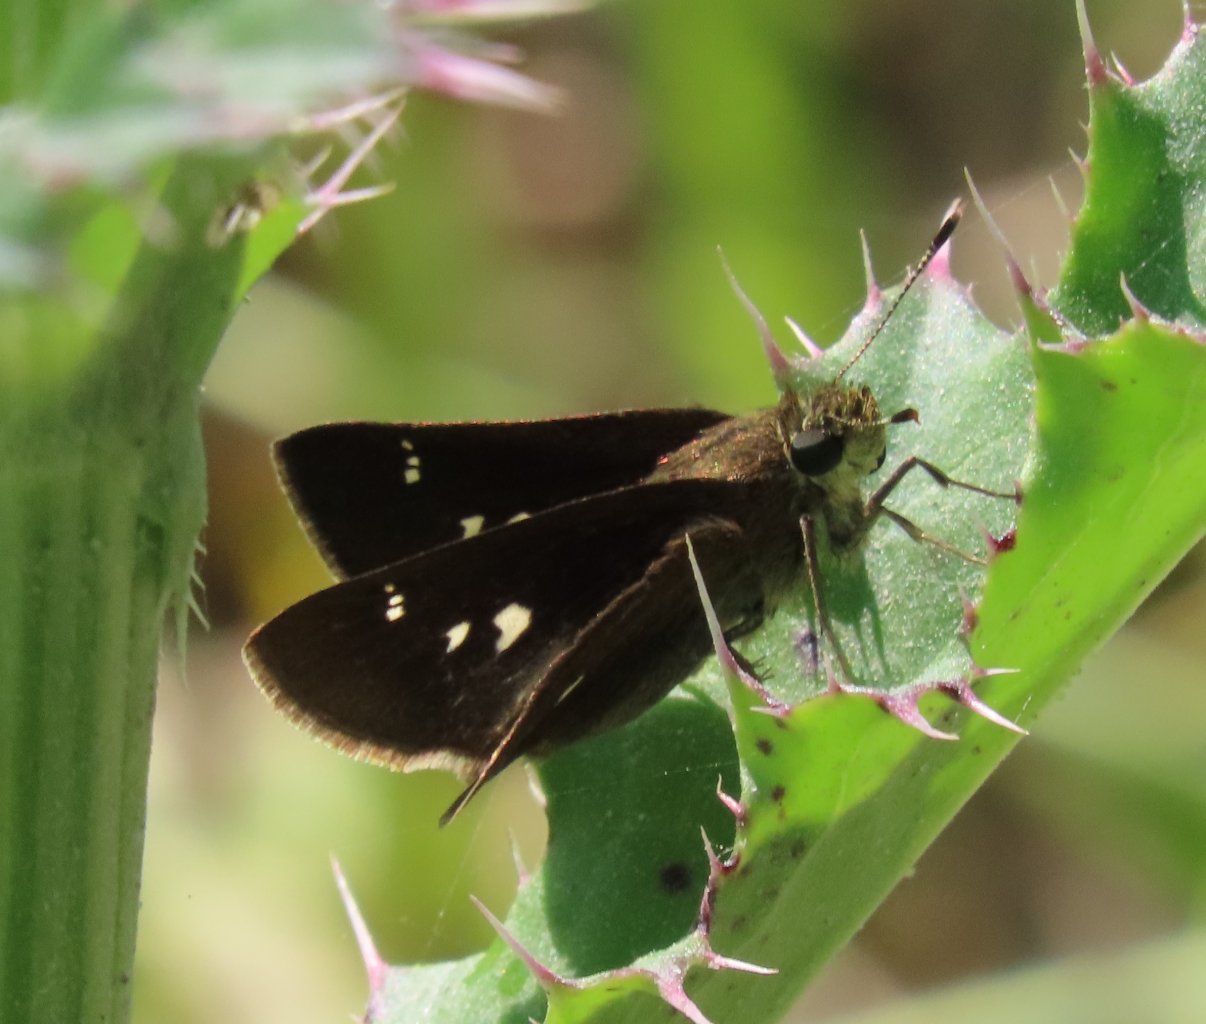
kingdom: Animalia
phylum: Arthropoda
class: Insecta
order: Lepidoptera
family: Hesperiidae
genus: Oligoria
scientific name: Oligoria maculata
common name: Twin-spot Skipper
